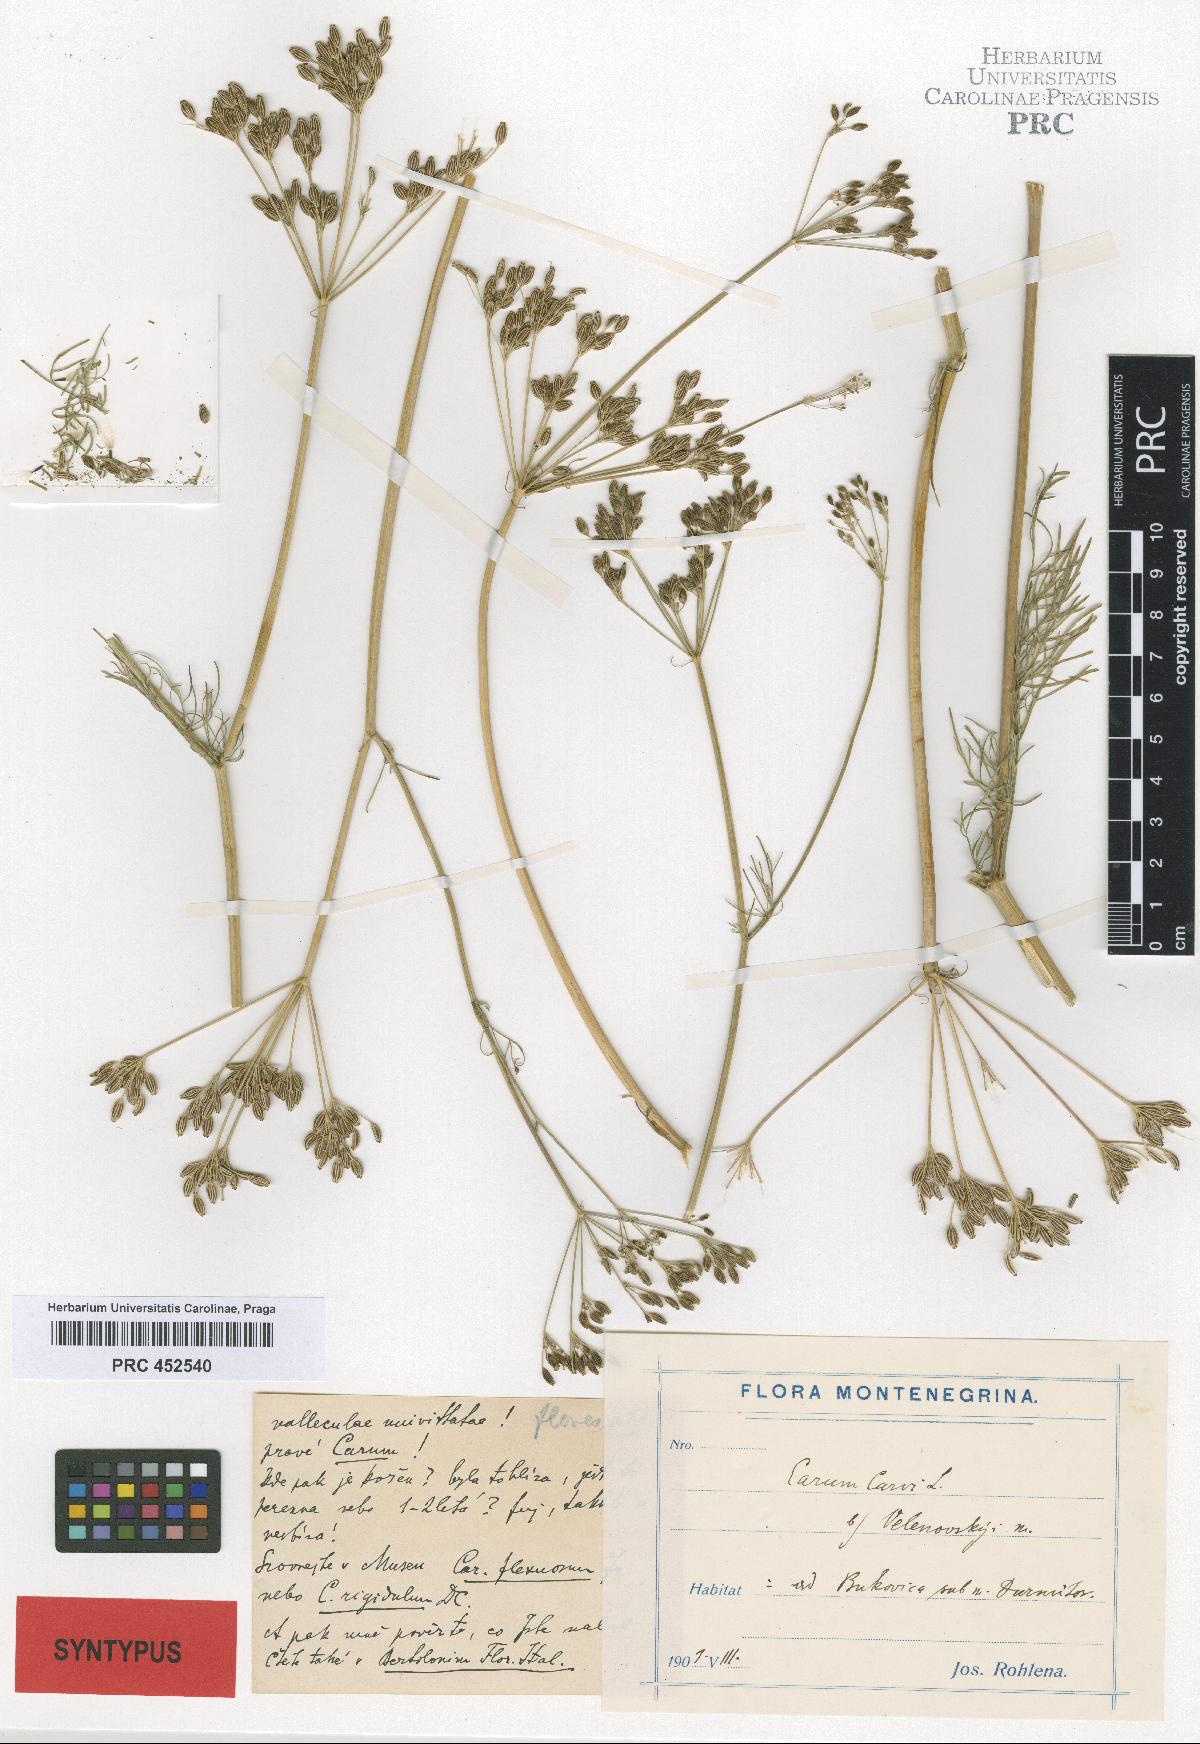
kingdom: Plantae
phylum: Tracheophyta
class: Magnoliopsida
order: Apiales
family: Apiaceae
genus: Carum
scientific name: Carum carvi
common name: Caraway
